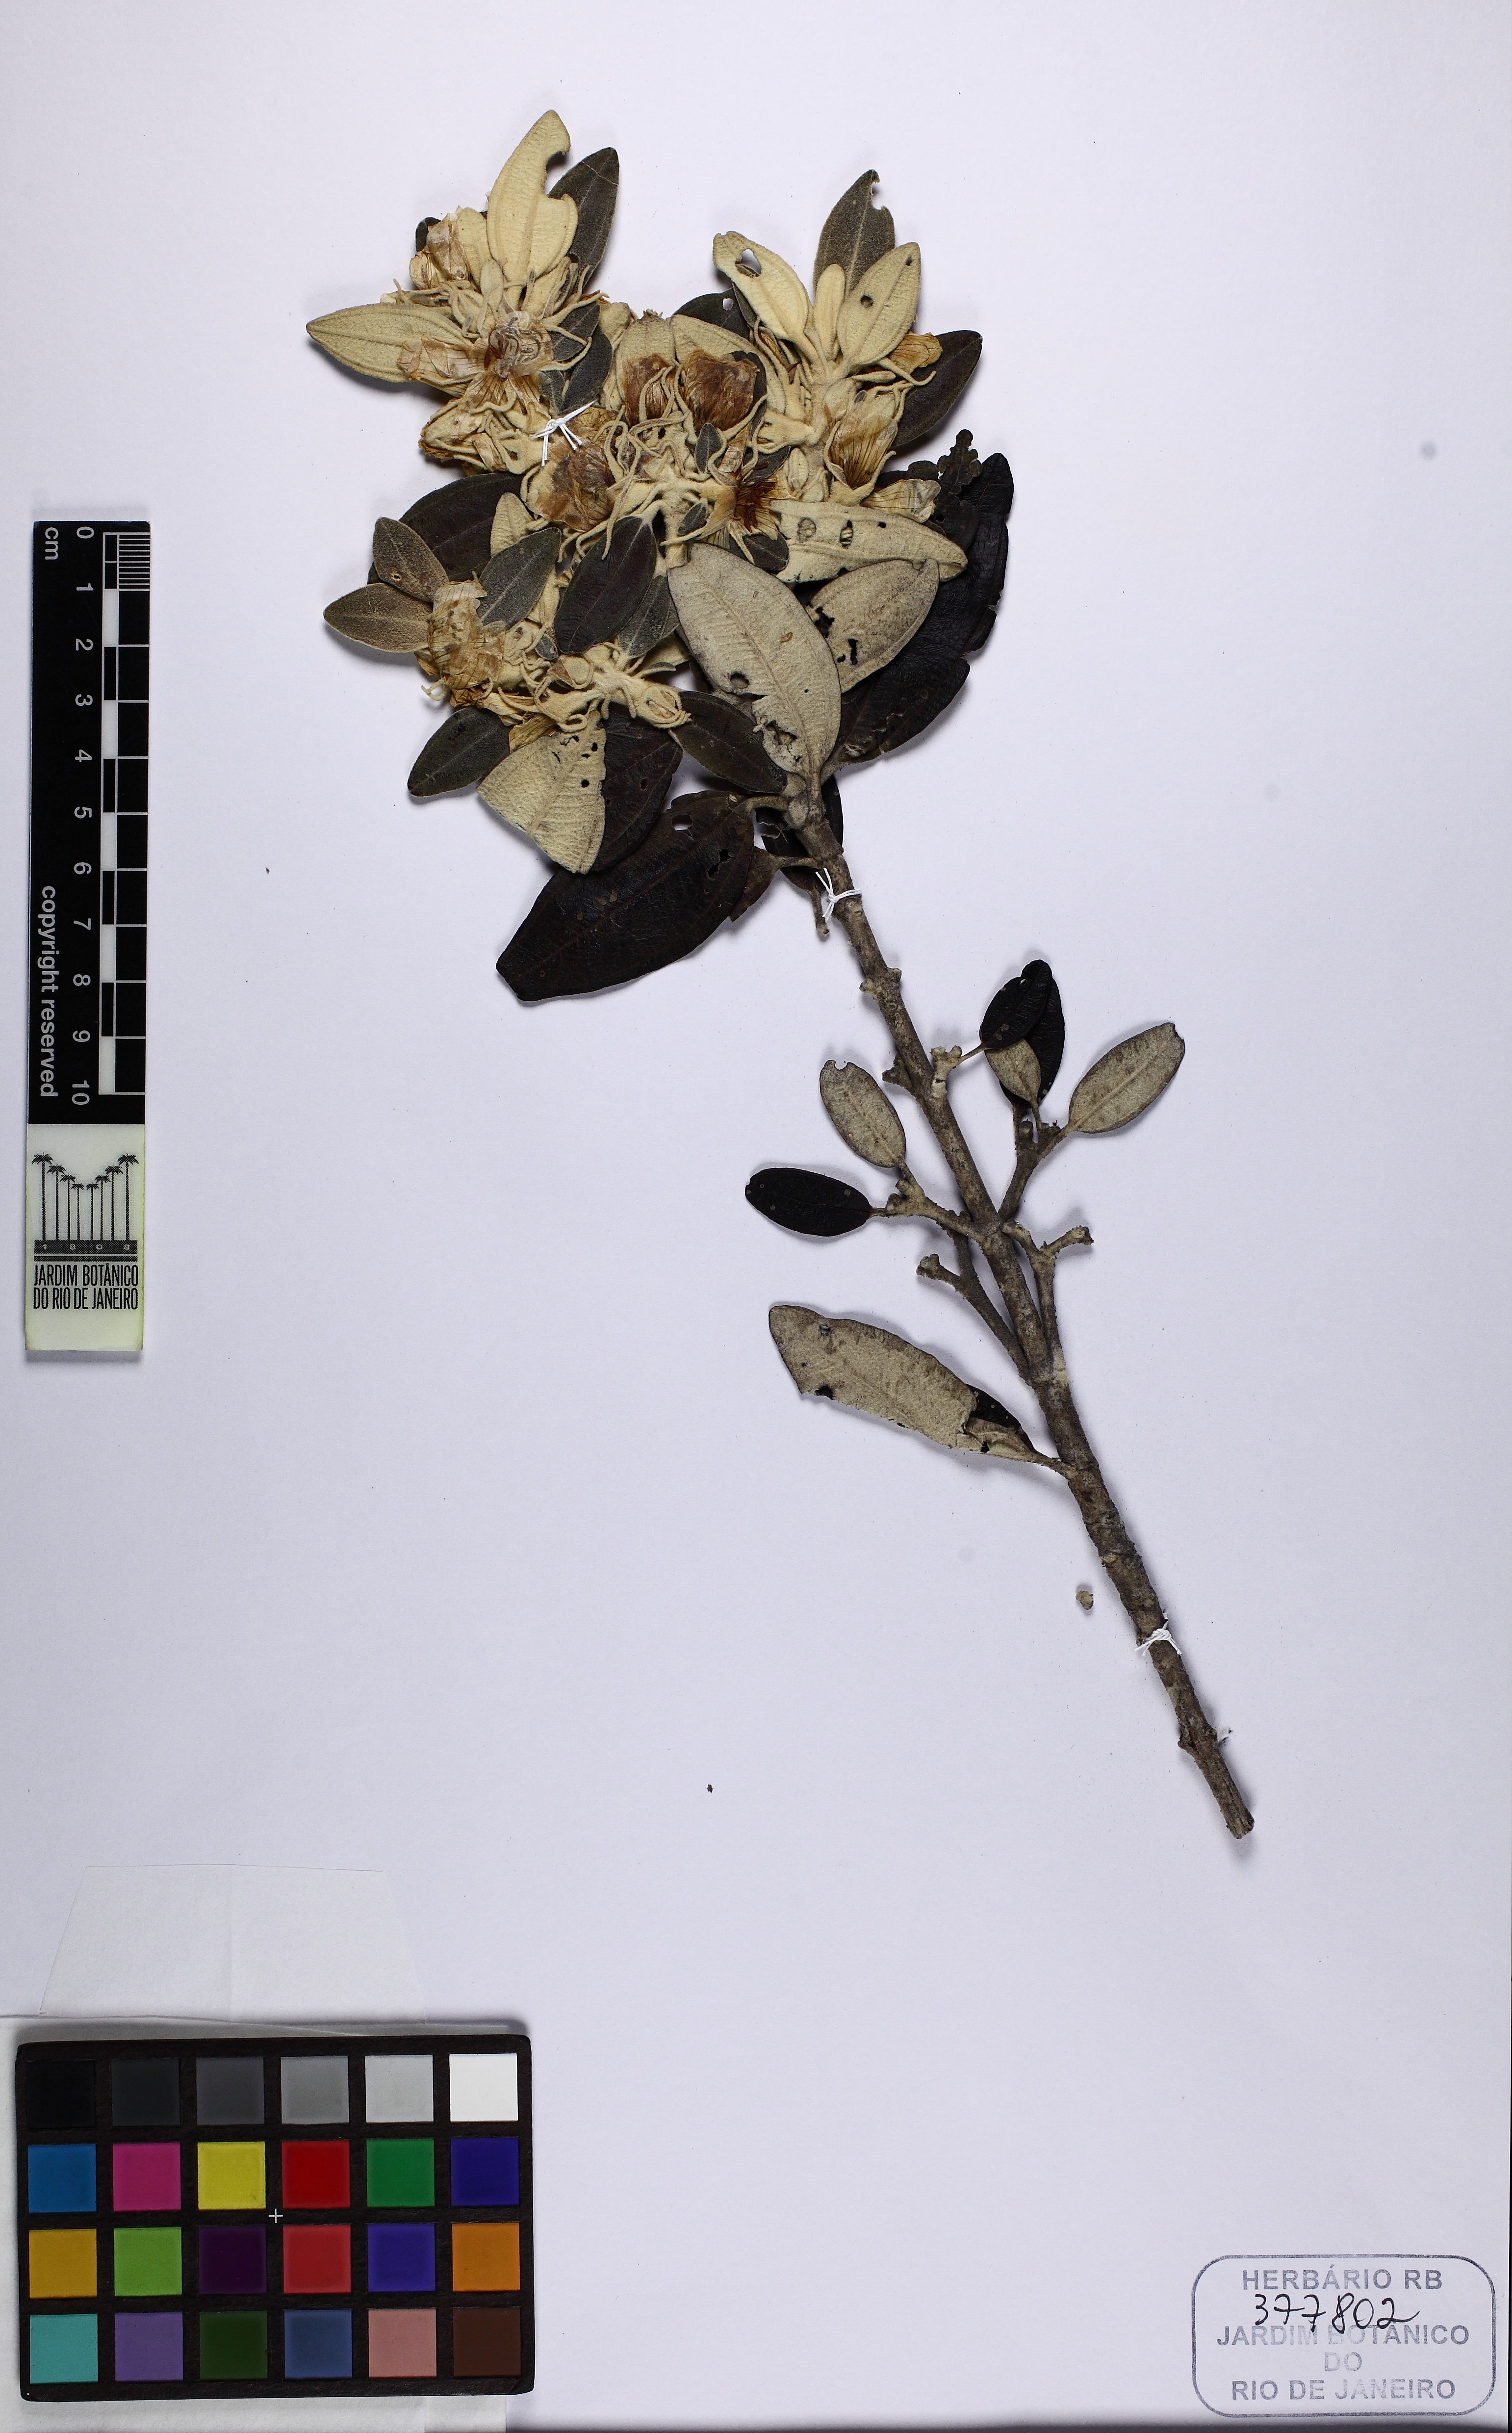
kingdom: Plantae
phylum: Tracheophyta
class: Magnoliopsida
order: Myrtales
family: Melastomataceae
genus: Microlicia
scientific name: Microlicia laniflora
